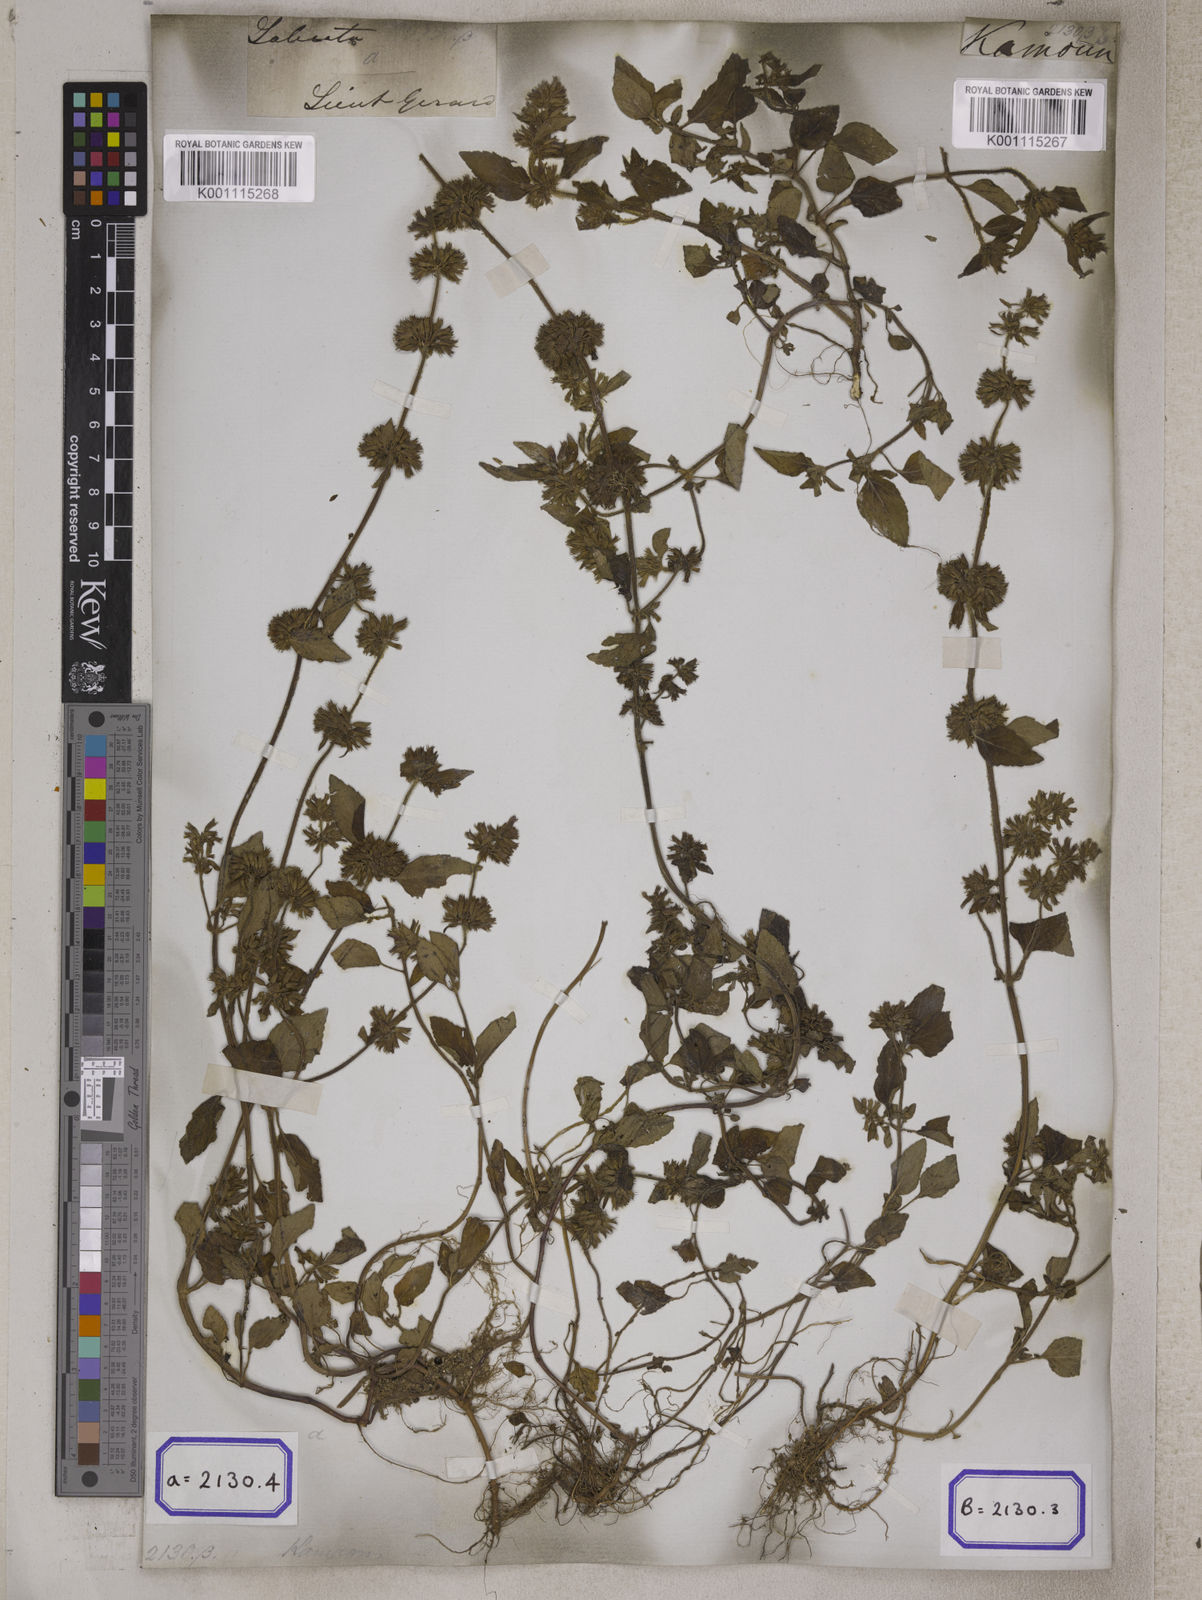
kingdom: Plantae
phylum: Tracheophyta
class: Magnoliopsida
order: Lamiales
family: Lamiaceae
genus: Clinopodium
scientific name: Clinopodium
